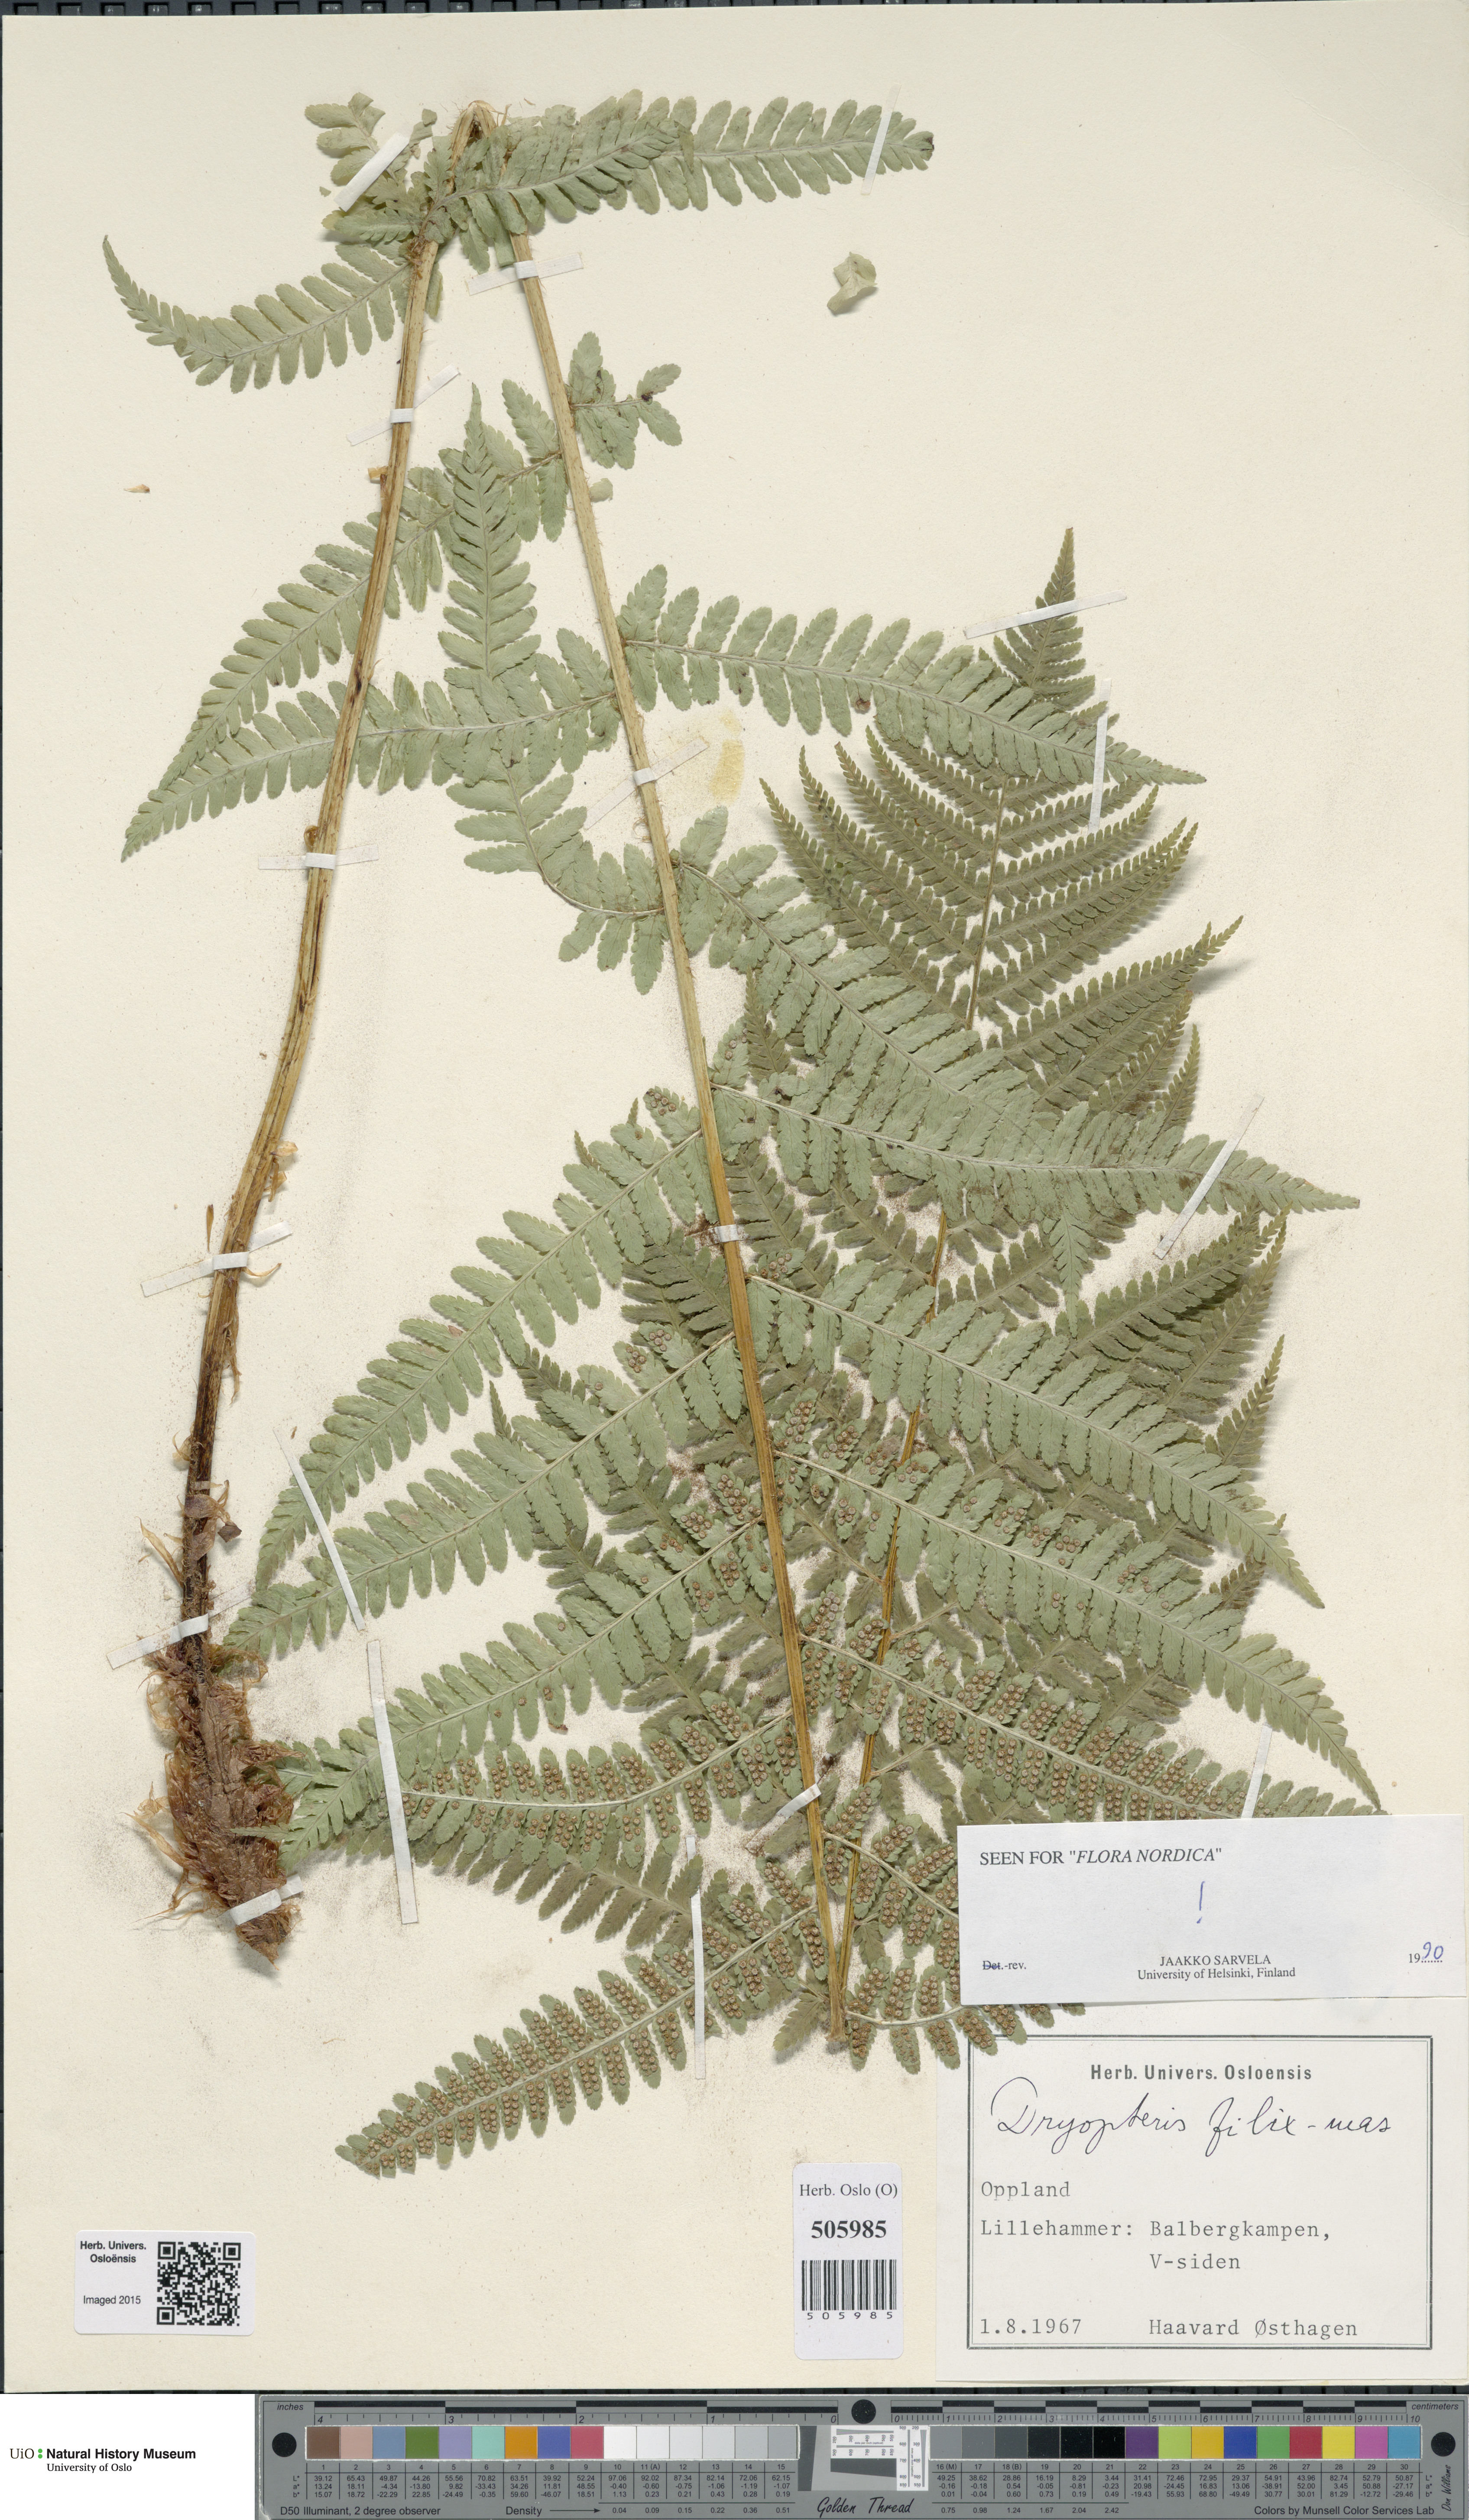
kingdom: Plantae
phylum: Tracheophyta
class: Polypodiopsida
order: Polypodiales
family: Dryopteridaceae
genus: Dryopteris
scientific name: Dryopteris filix-mas
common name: Male fern
